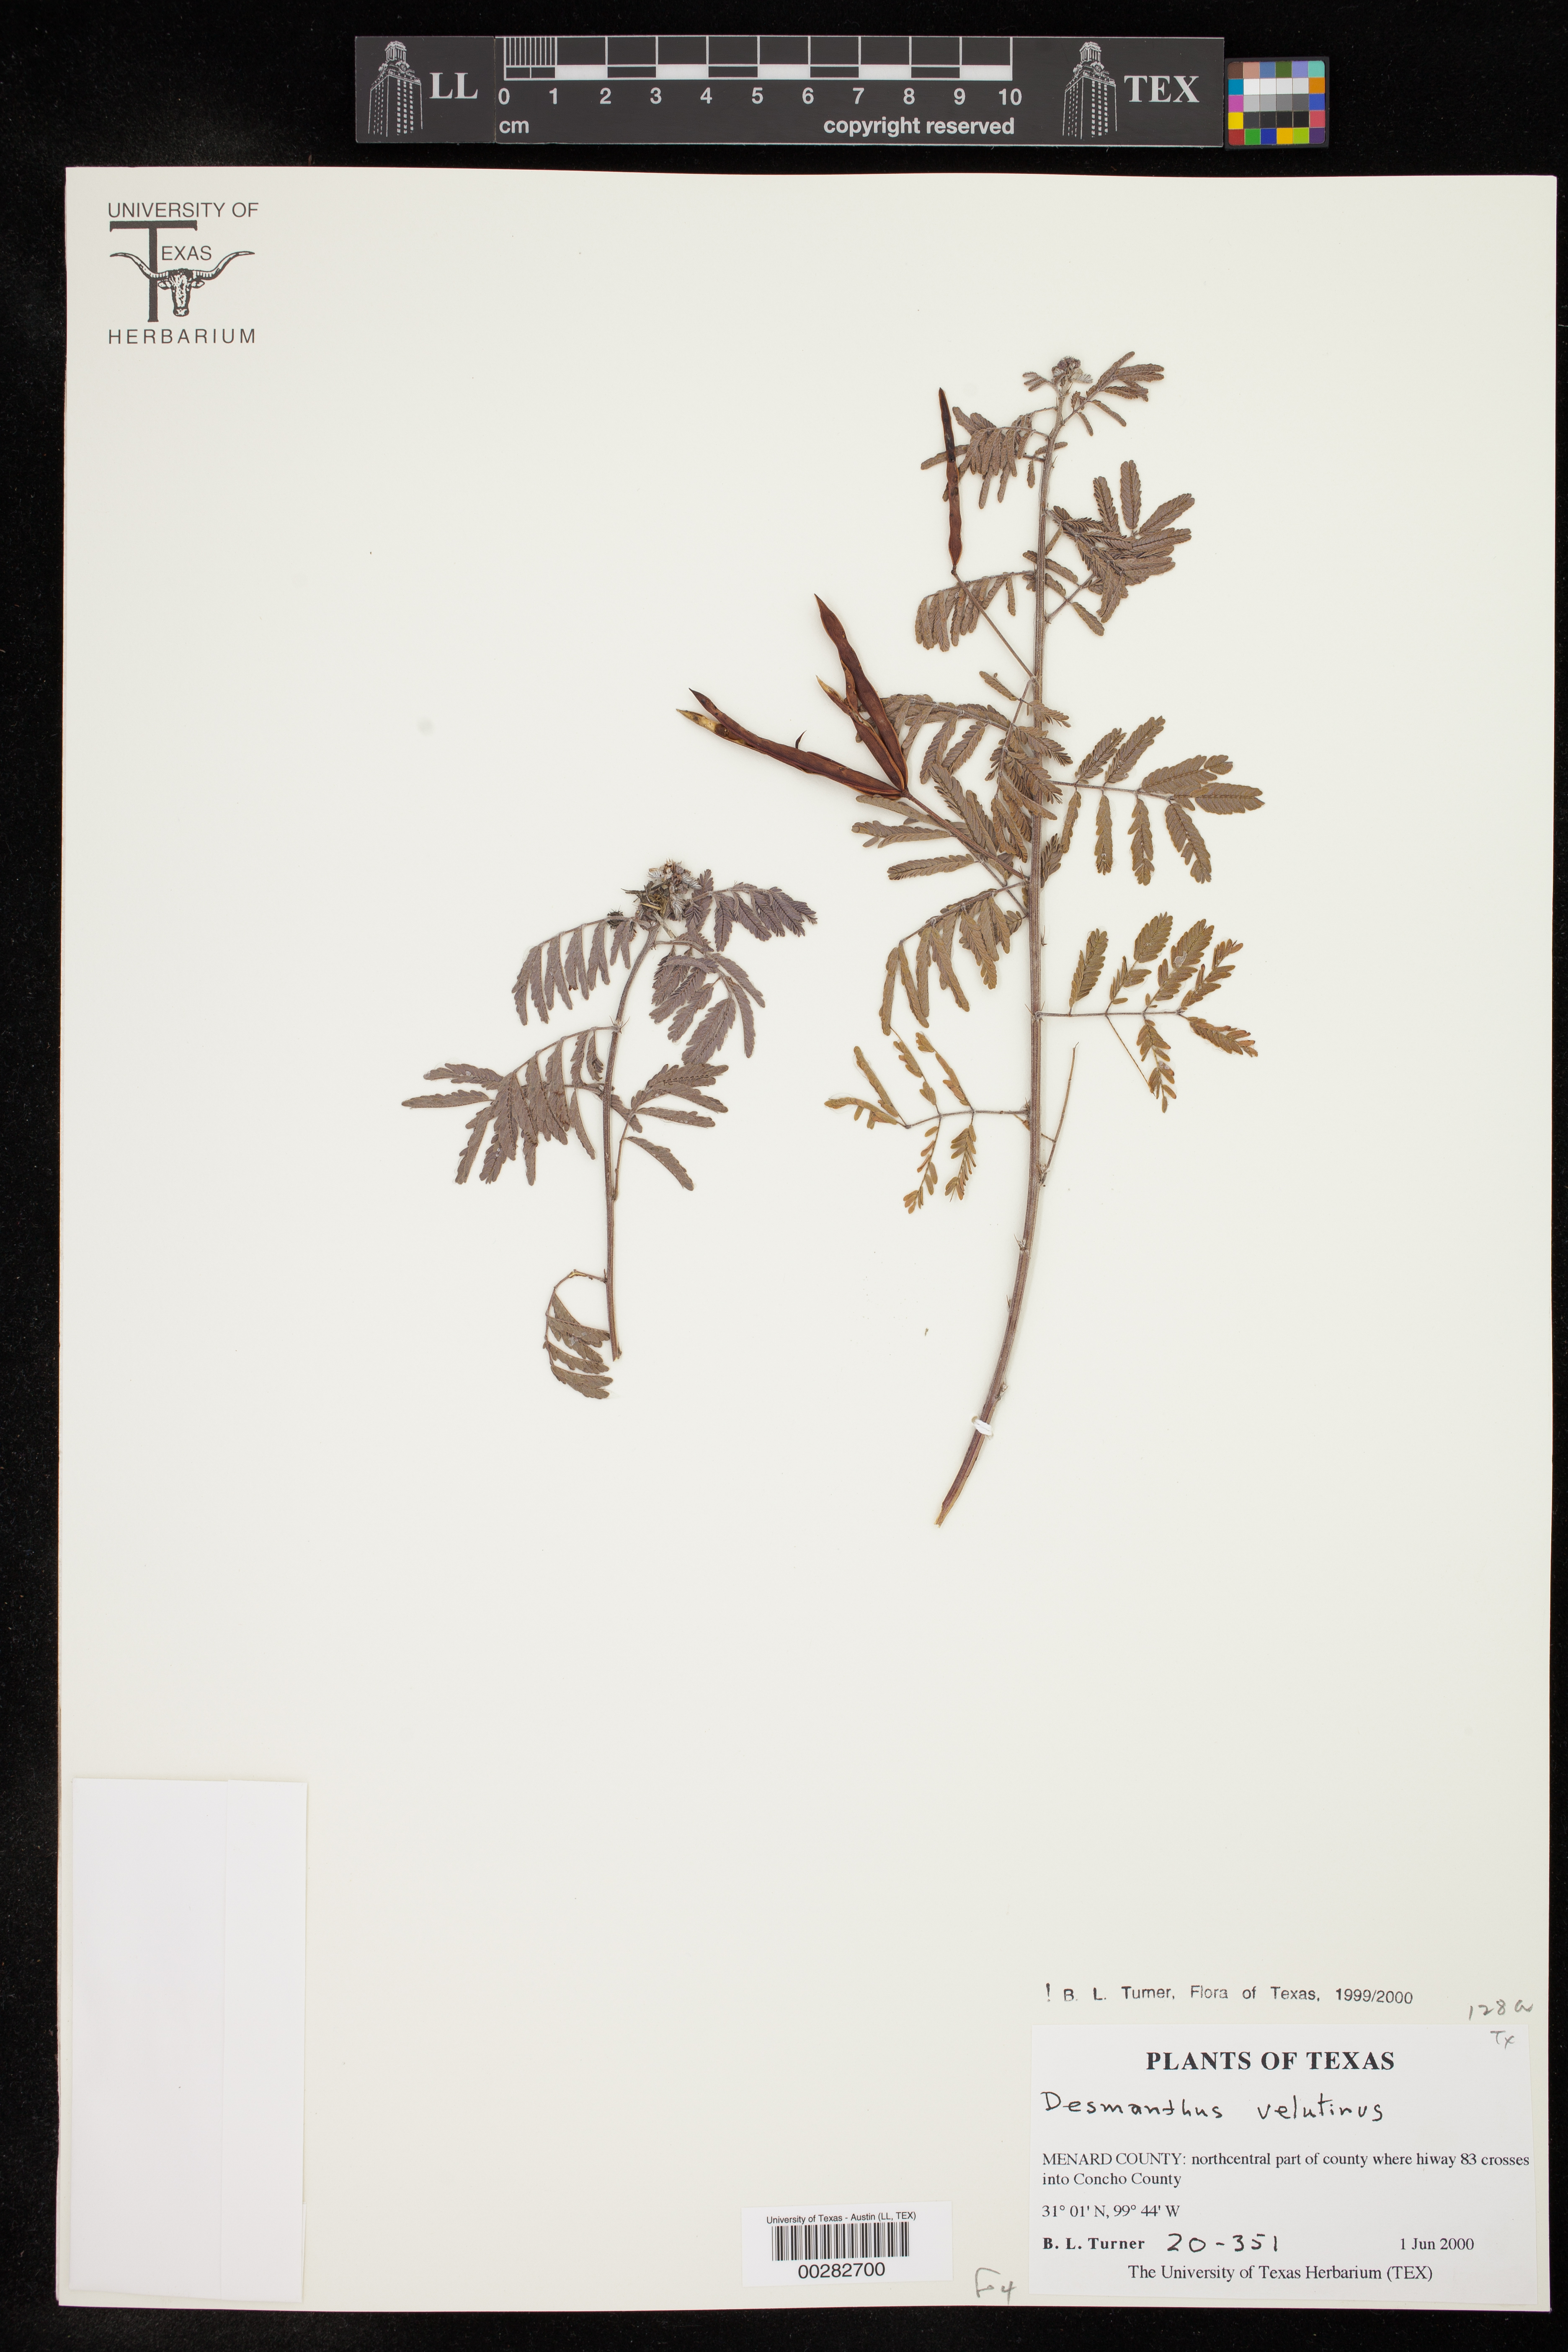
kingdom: Plantae
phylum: Tracheophyta
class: Magnoliopsida
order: Fabales
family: Fabaceae
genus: Desmanthus
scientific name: Desmanthus velutinus
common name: Velvet bundle-flower
